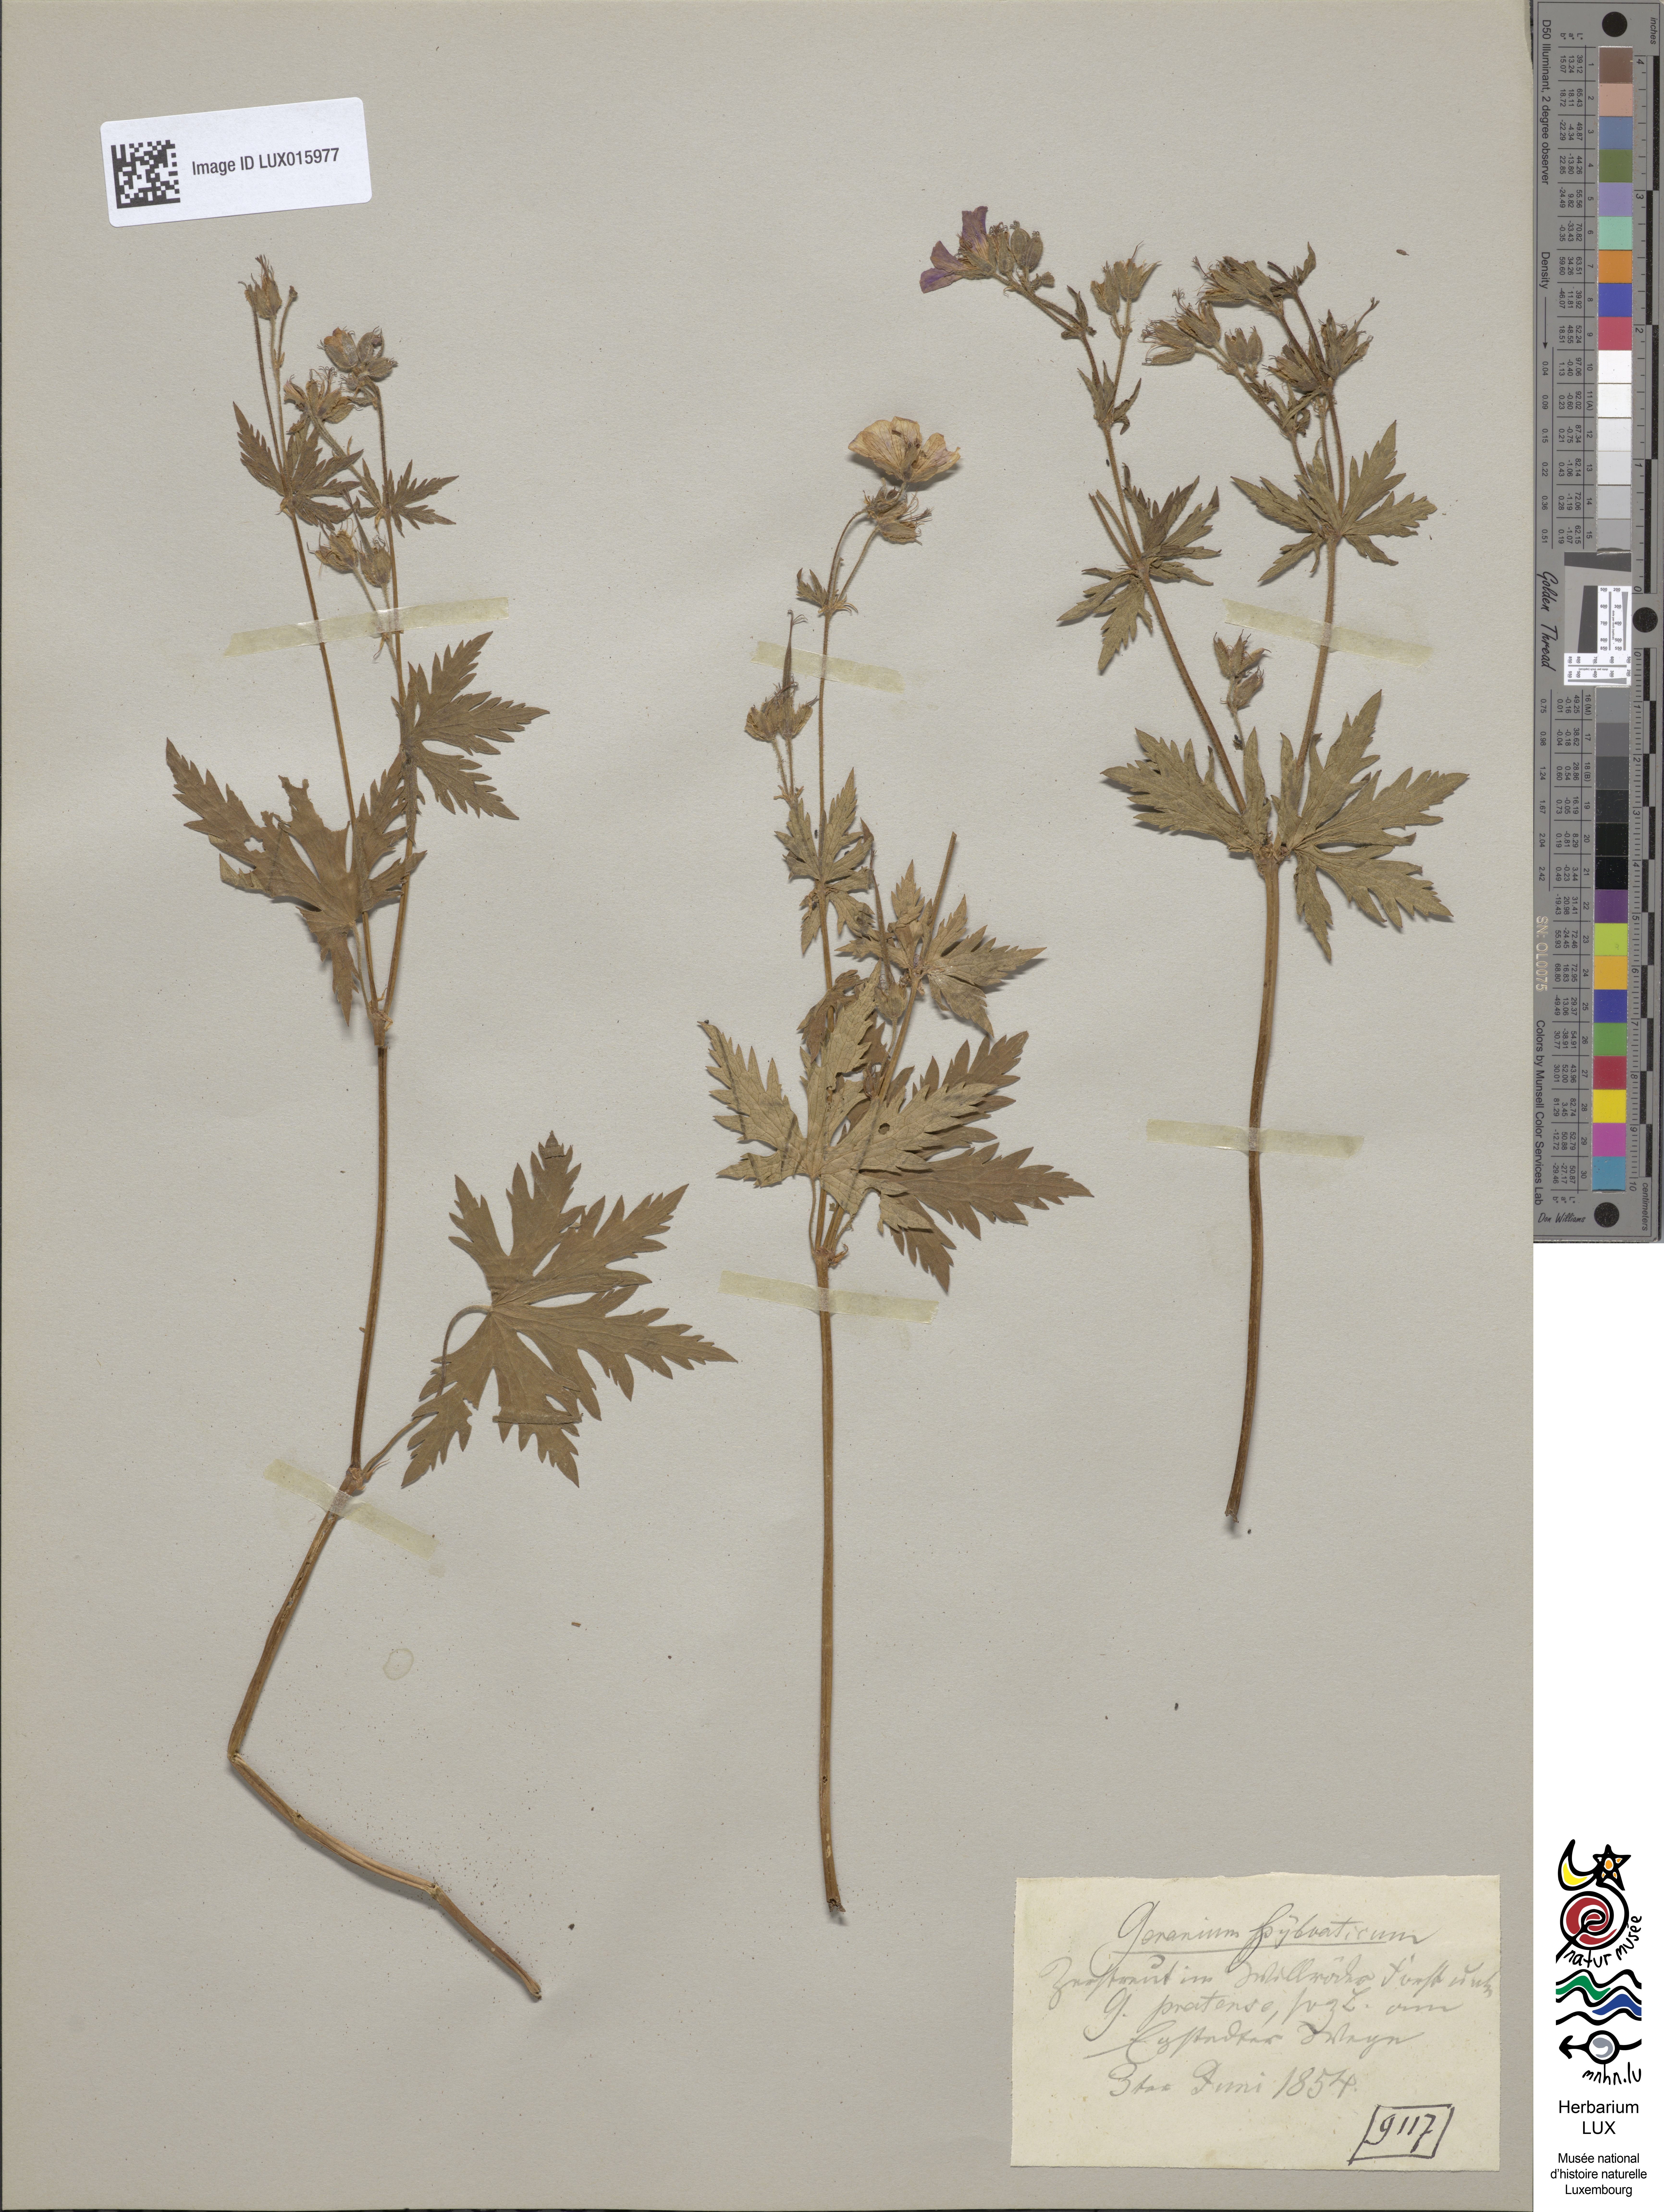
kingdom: Plantae
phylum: Tracheophyta
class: Magnoliopsida
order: Geraniales
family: Geraniaceae
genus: Geranium
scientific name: Geranium sylvaticum
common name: Wood crane's-bill
